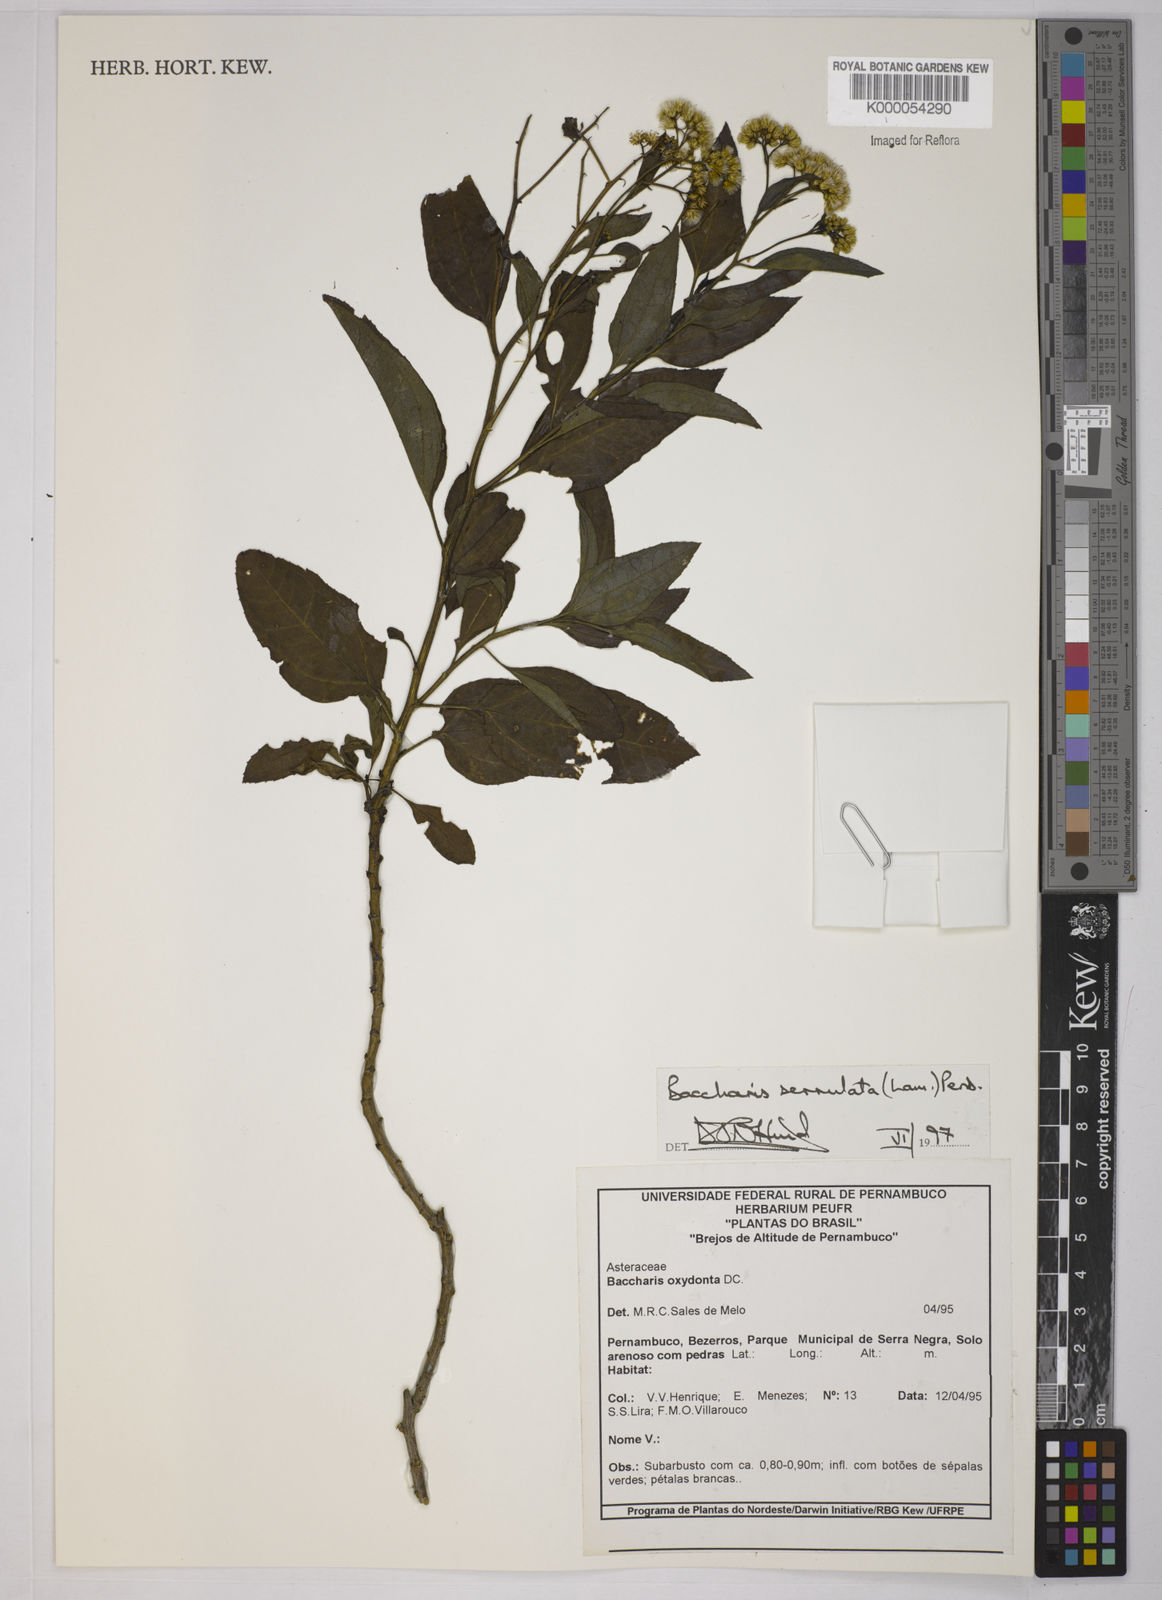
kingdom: Plantae
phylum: Tracheophyta
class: Magnoliopsida
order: Asterales
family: Asteraceae
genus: Baccharis
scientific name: Baccharis serrulata
